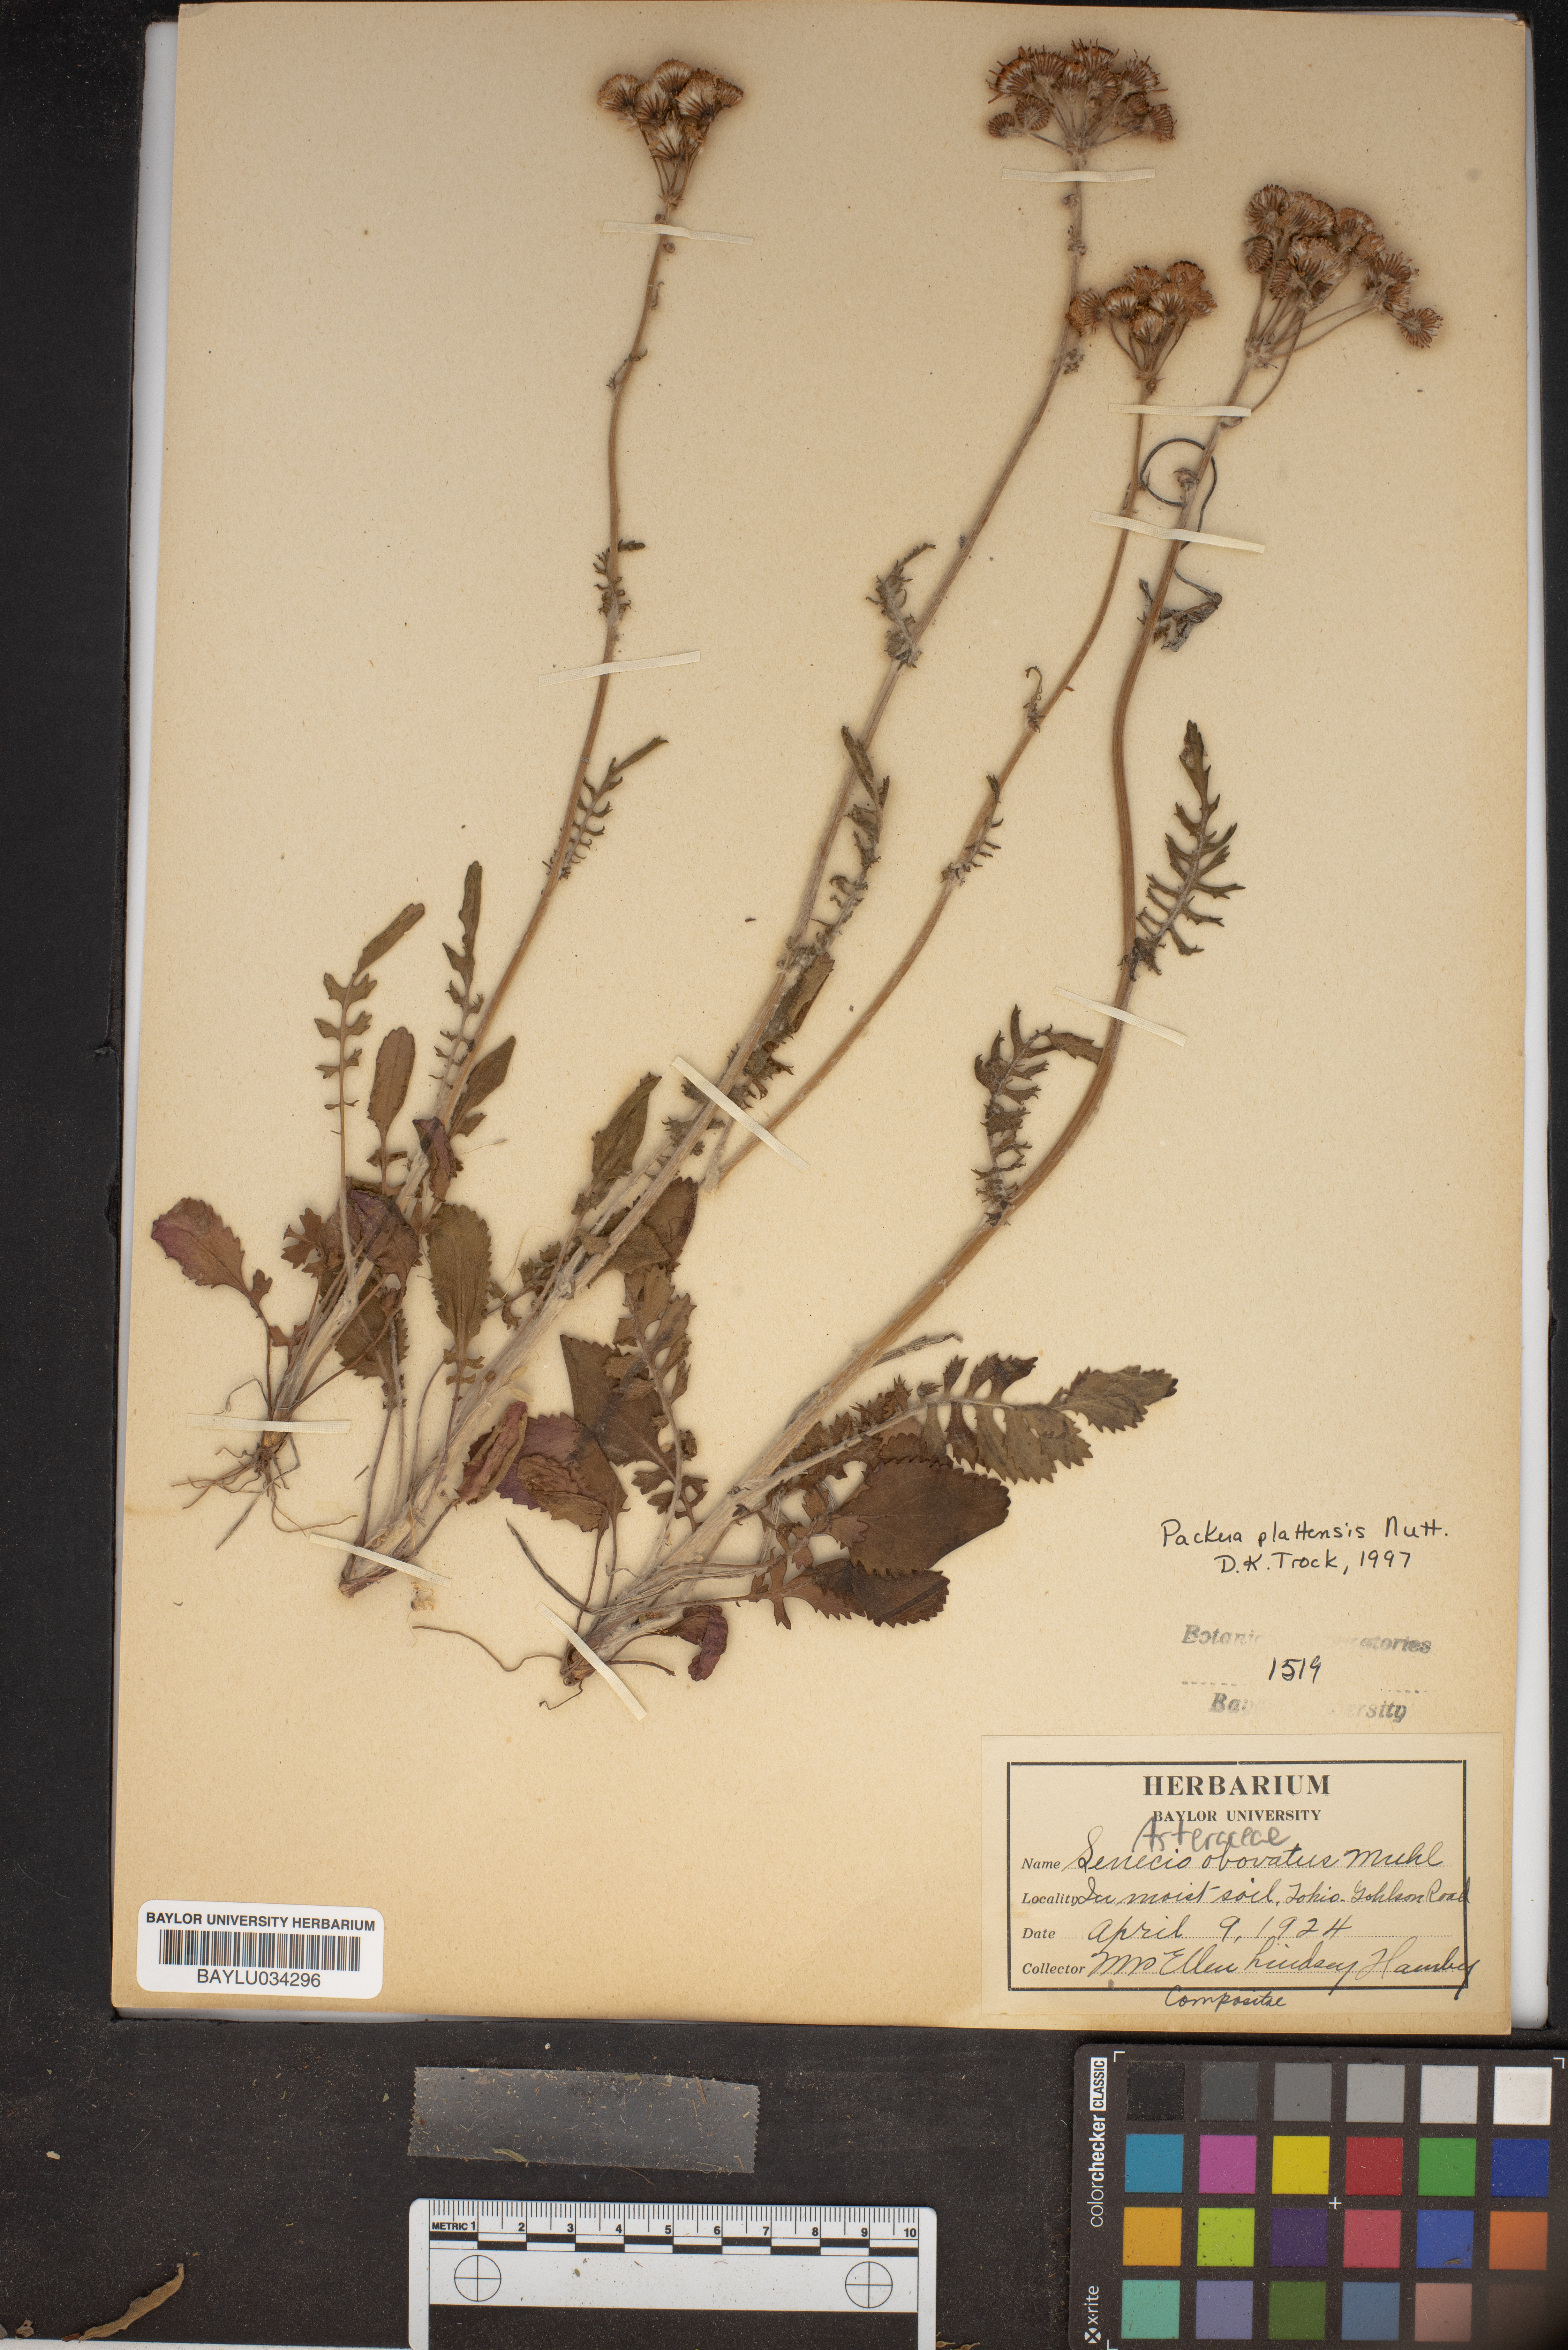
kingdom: Plantae
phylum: Tracheophyta
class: Magnoliopsida
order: Asterales
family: Asteraceae
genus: Packera
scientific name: Packera plattensis
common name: Prairie groundsel
